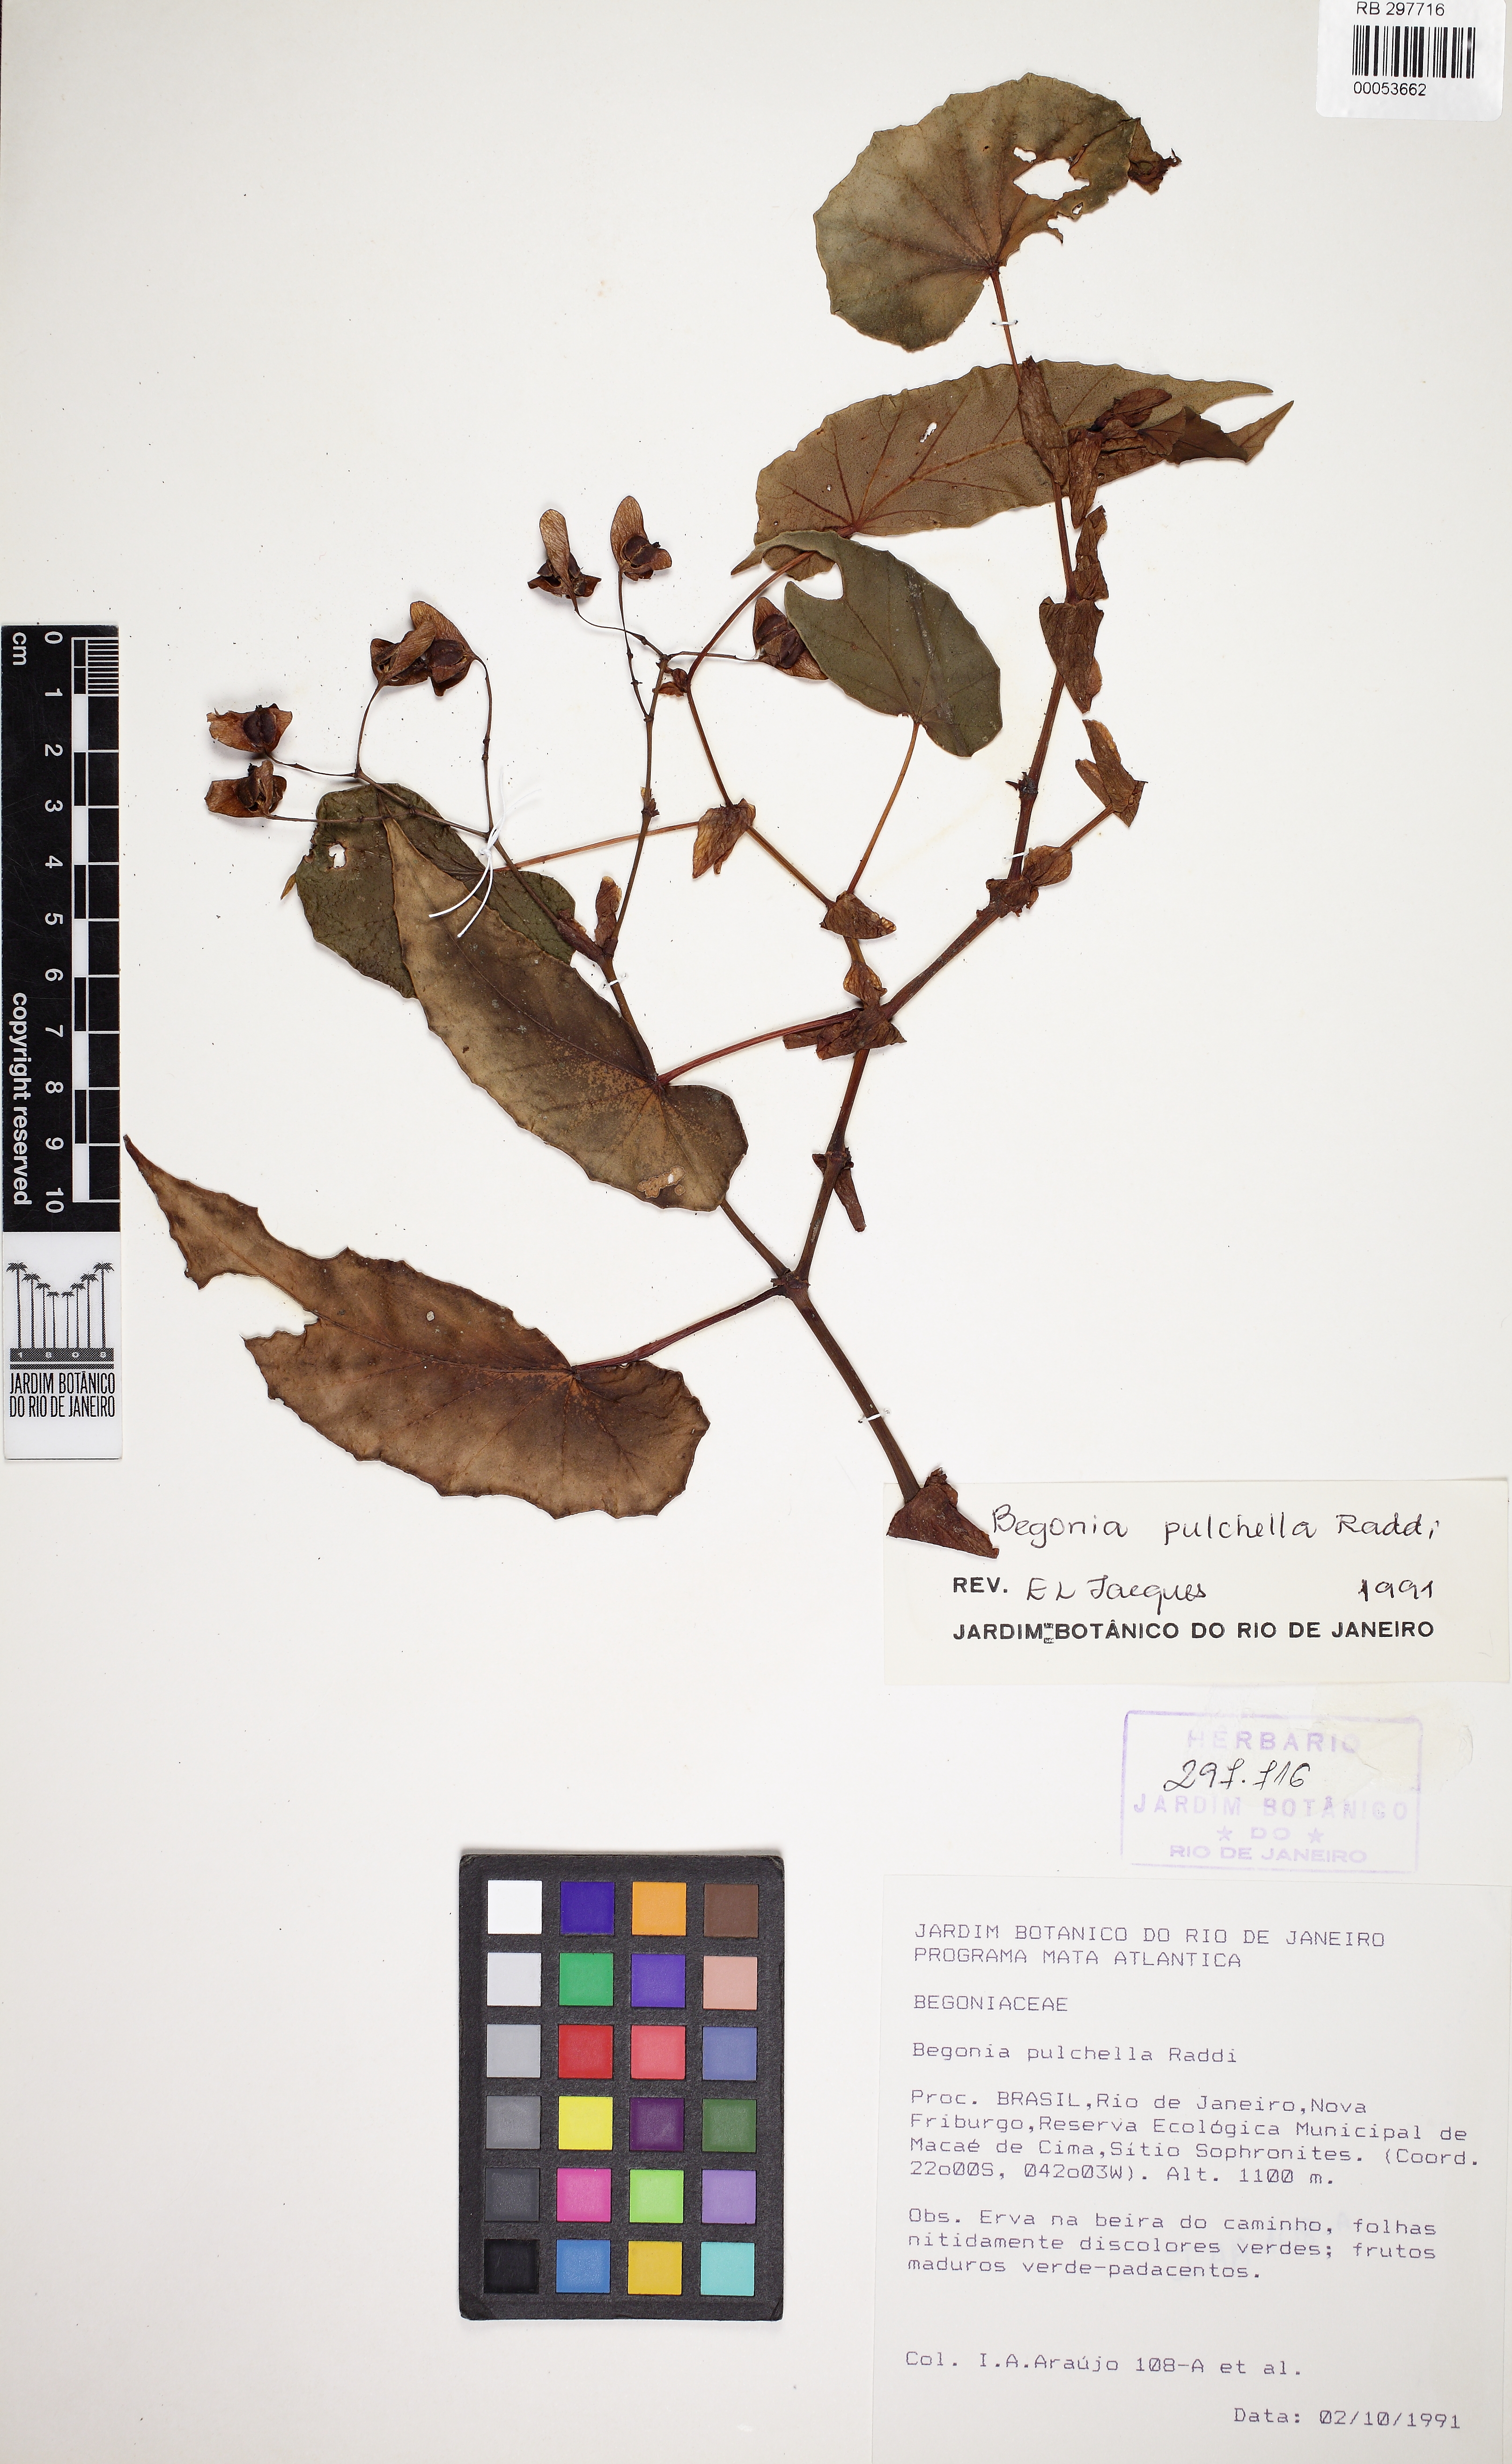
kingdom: Plantae
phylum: Tracheophyta
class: Magnoliopsida
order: Cucurbitales
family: Begoniaceae
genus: Begonia
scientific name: Begonia pulchella
